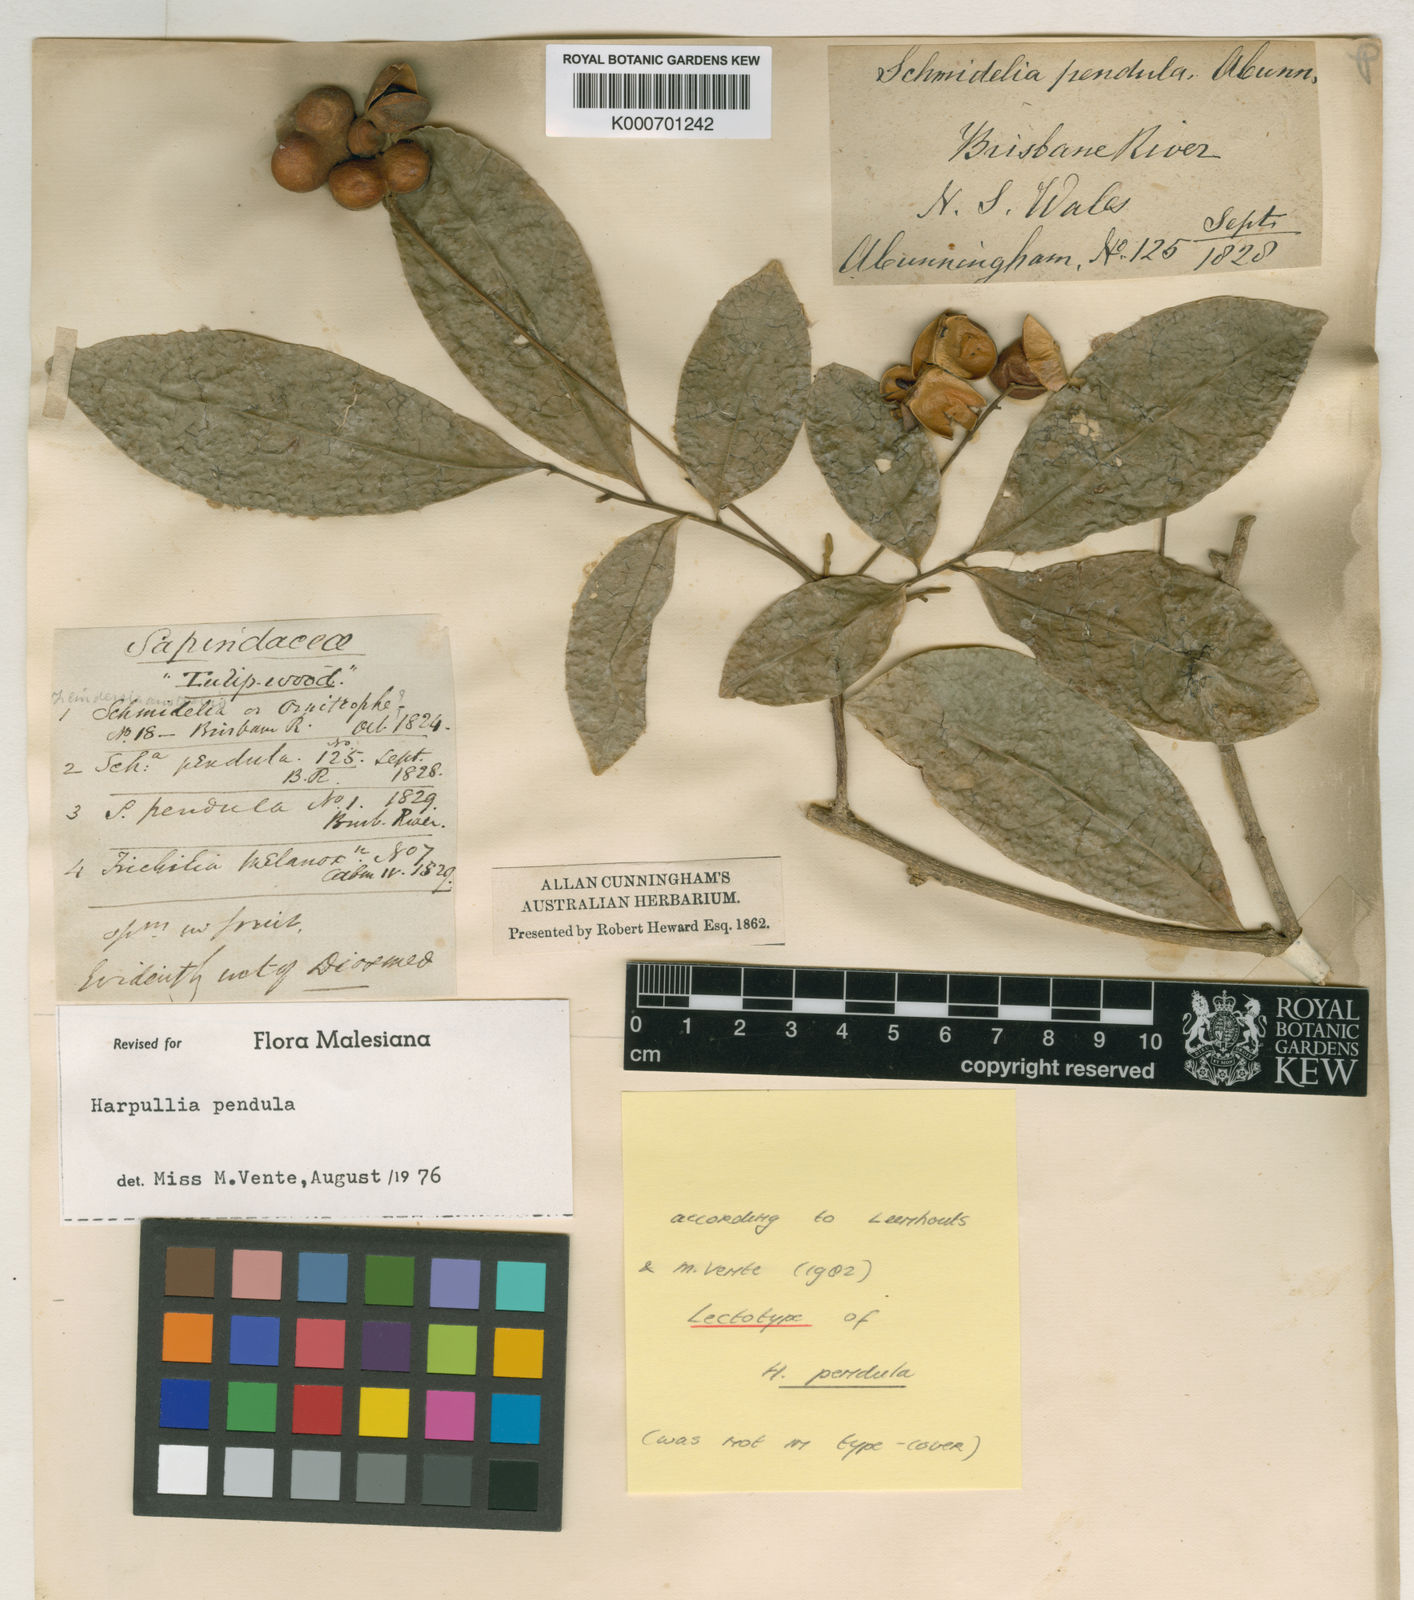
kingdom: Plantae
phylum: Tracheophyta
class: Magnoliopsida
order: Sapindales
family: Sapindaceae
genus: Harpullia
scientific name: Harpullia pendula
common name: Moreton bay tulipwood
